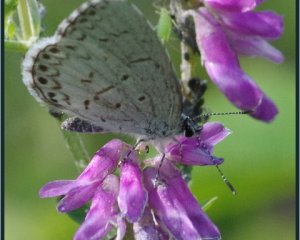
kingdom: Animalia
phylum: Arthropoda
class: Insecta
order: Lepidoptera
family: Lycaenidae
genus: Cyaniris
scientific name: Cyaniris neglecta
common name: Summer Azure
